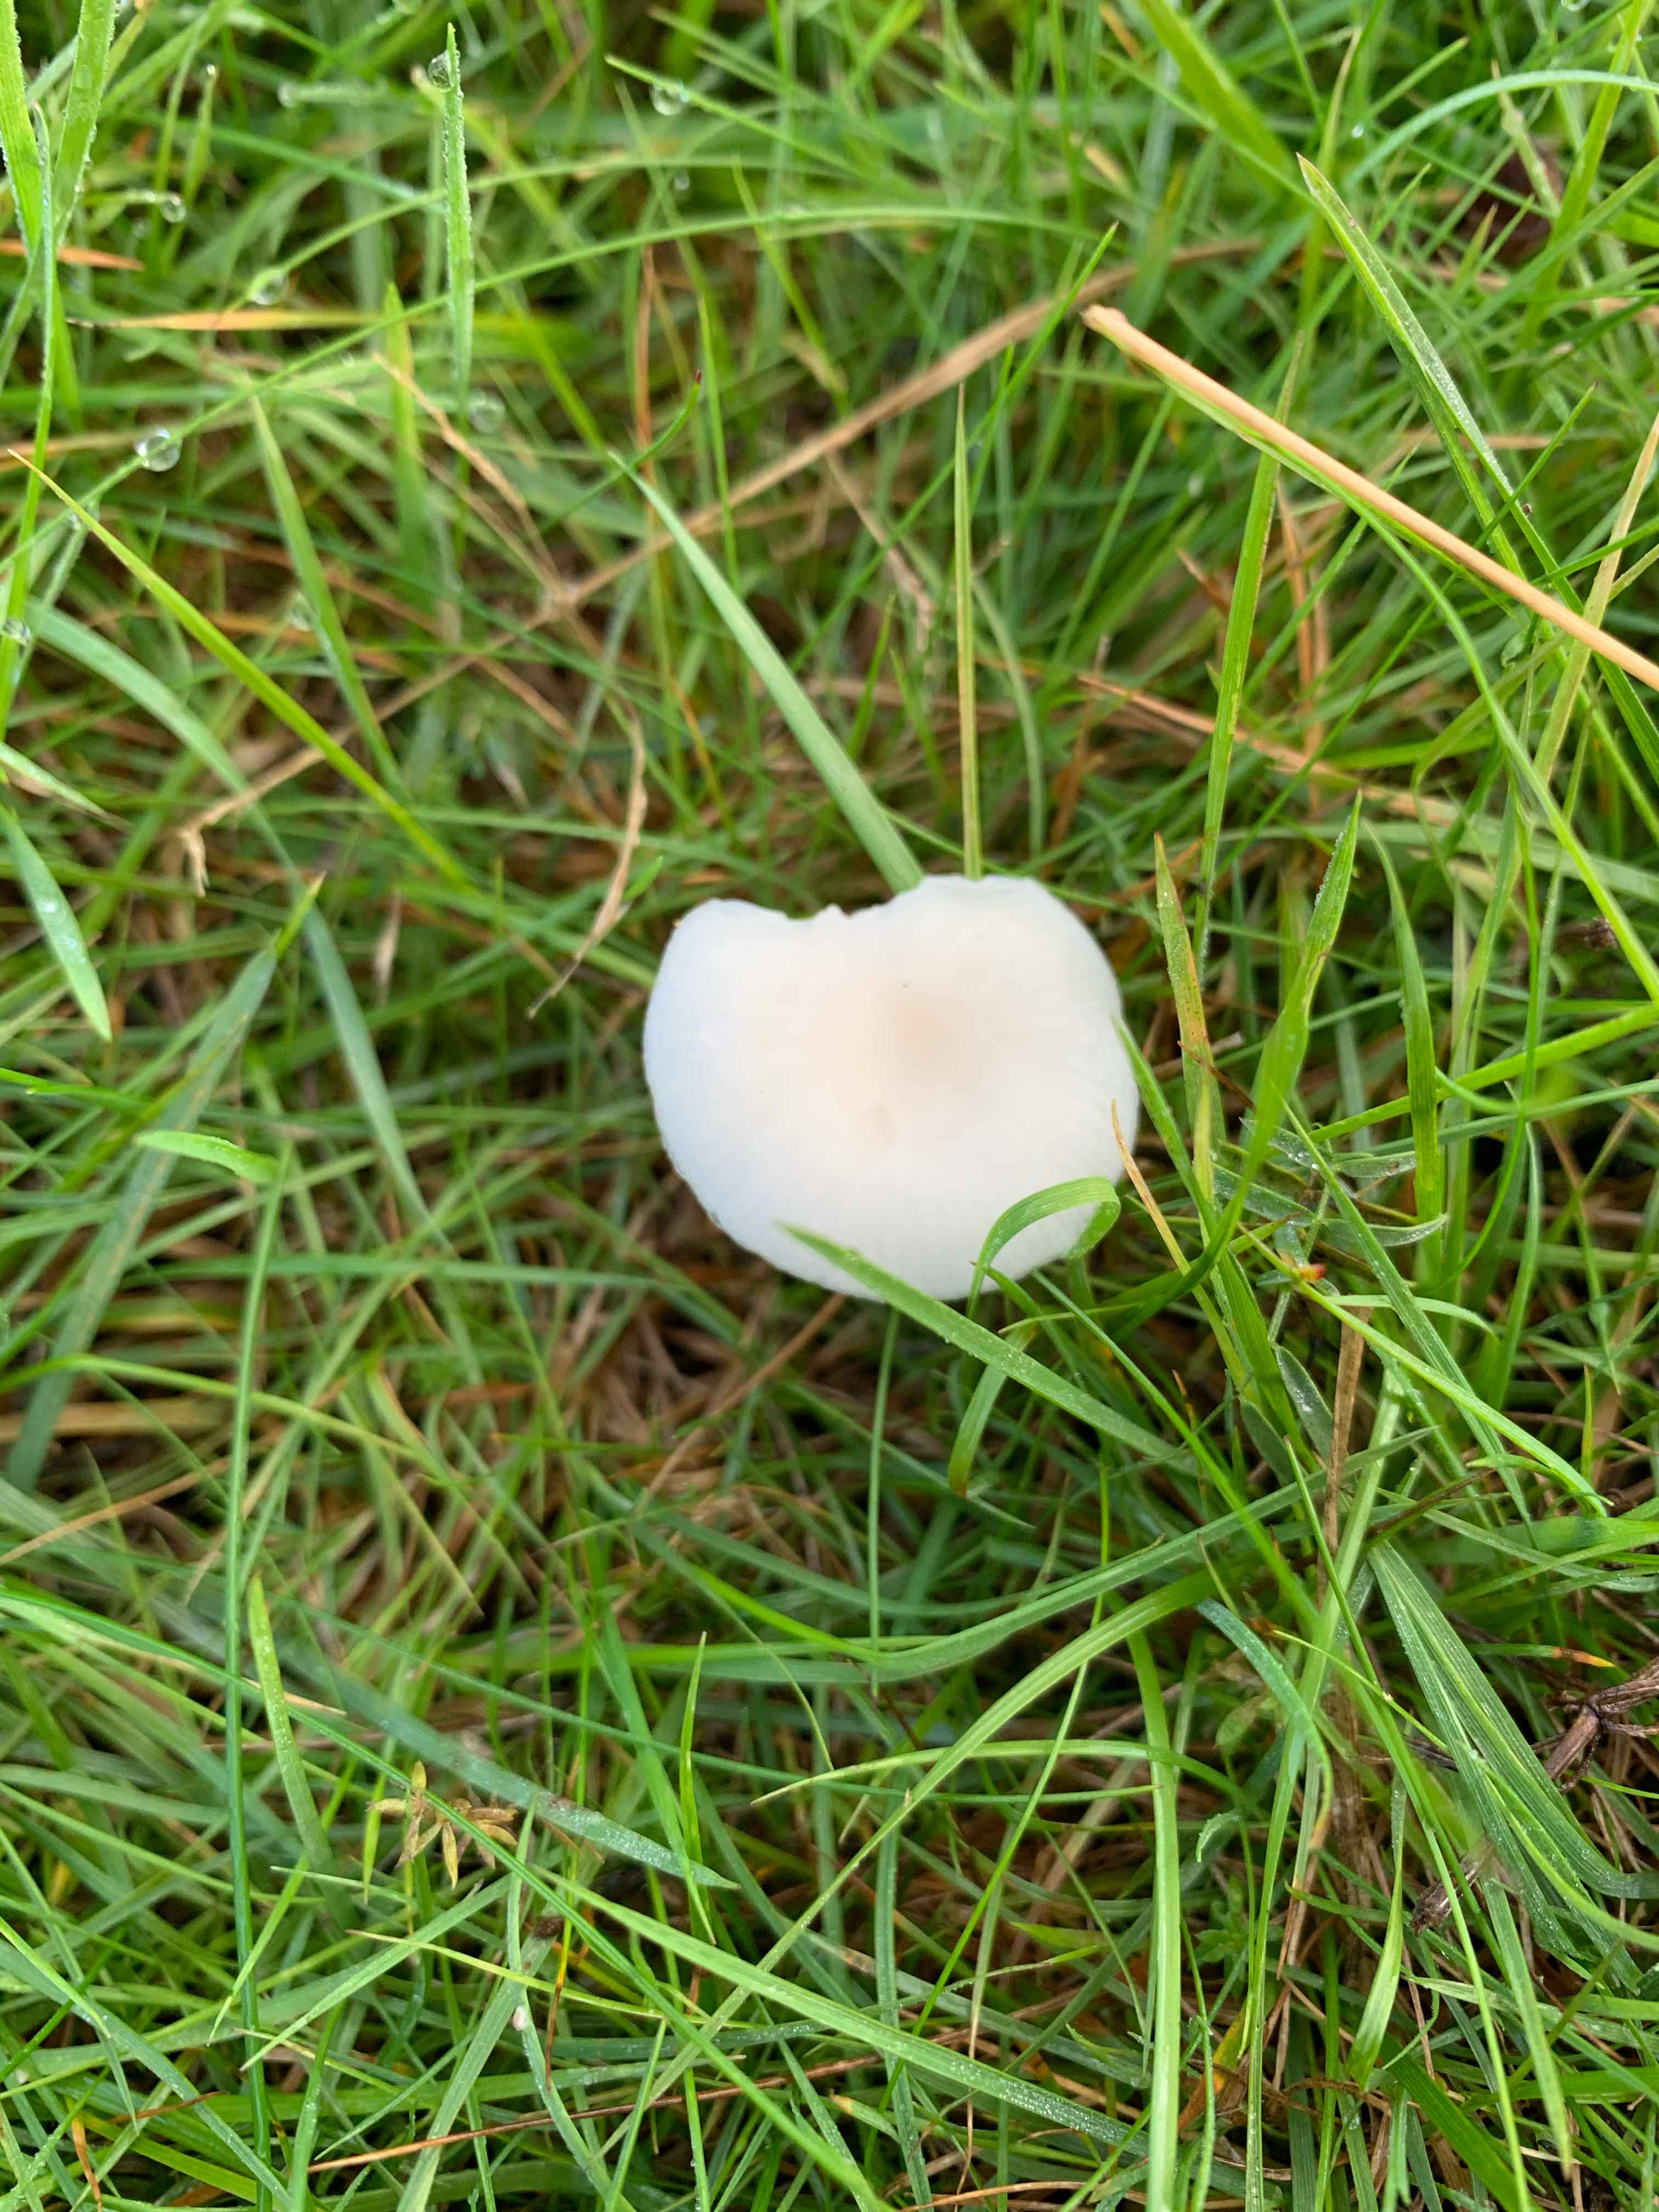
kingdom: Fungi
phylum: Basidiomycota
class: Agaricomycetes
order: Agaricales
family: Hygrophoraceae
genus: Cuphophyllus
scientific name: Cuphophyllus
